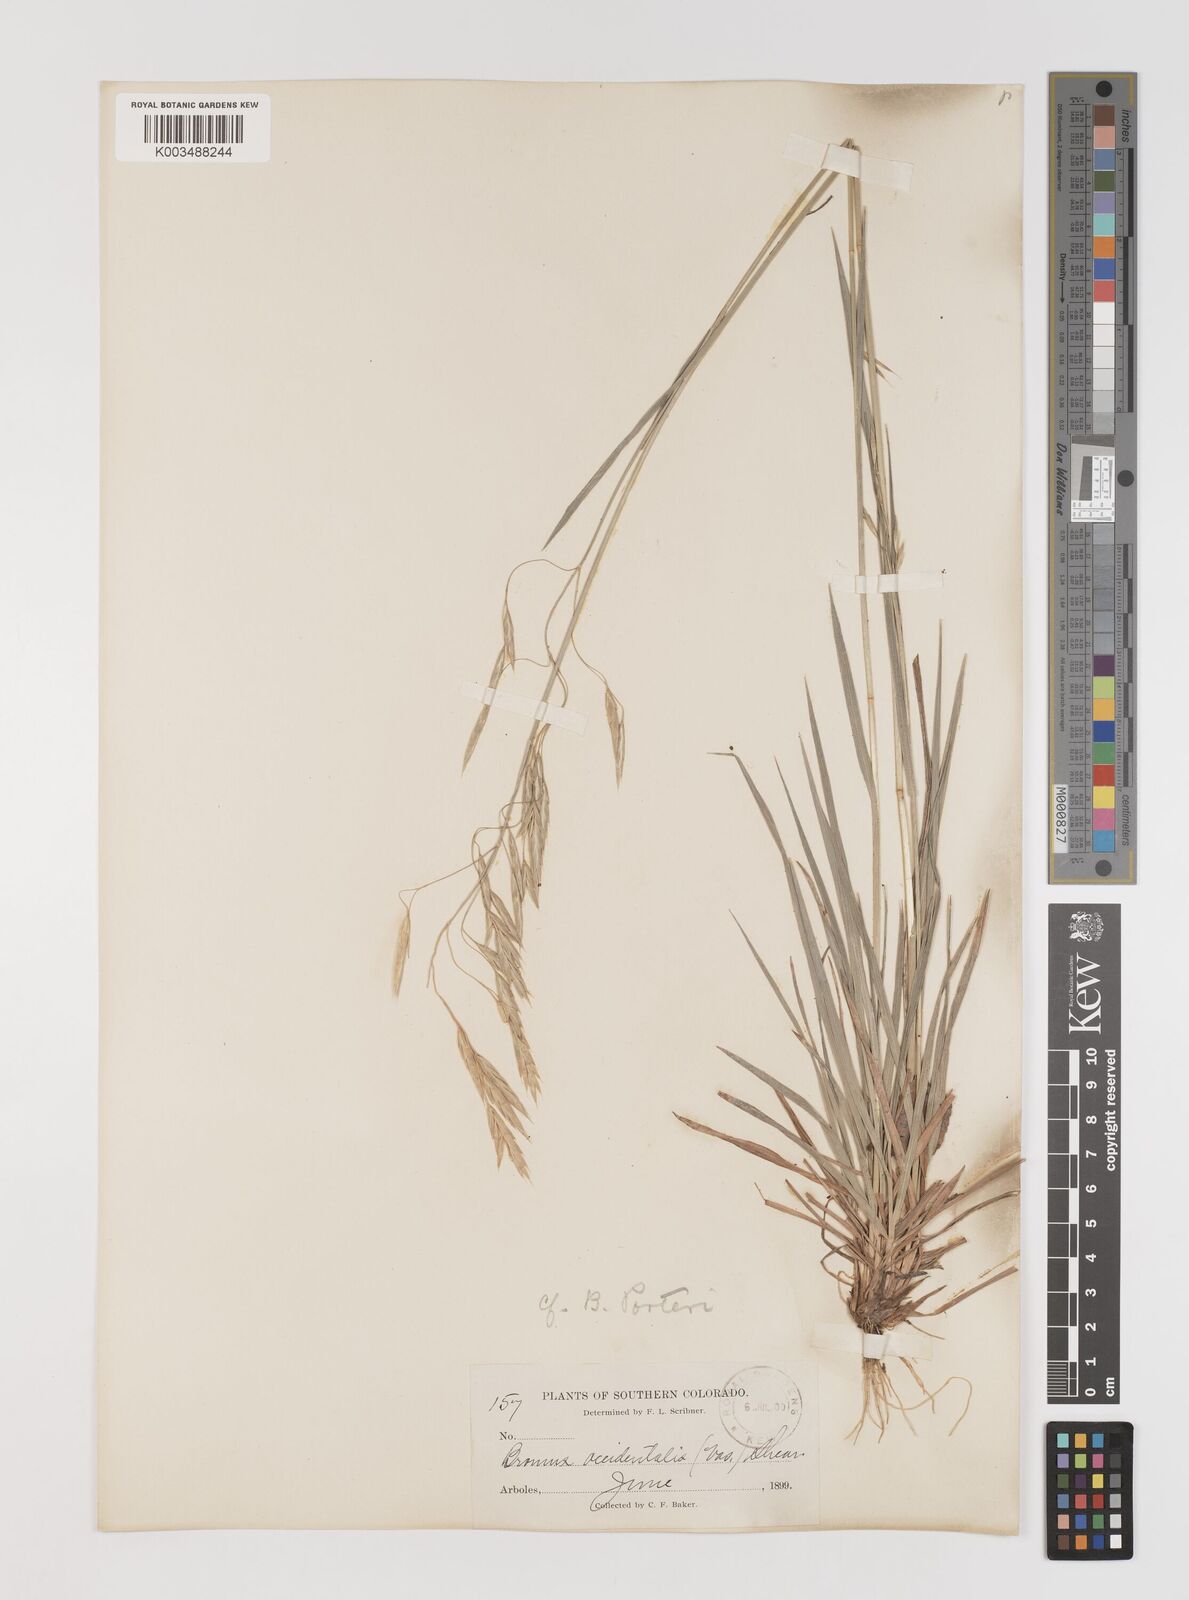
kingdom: Plantae
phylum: Tracheophyta
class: Liliopsida
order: Poales
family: Poaceae
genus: Bromus
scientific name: Bromus porteri
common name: Nodding brome
